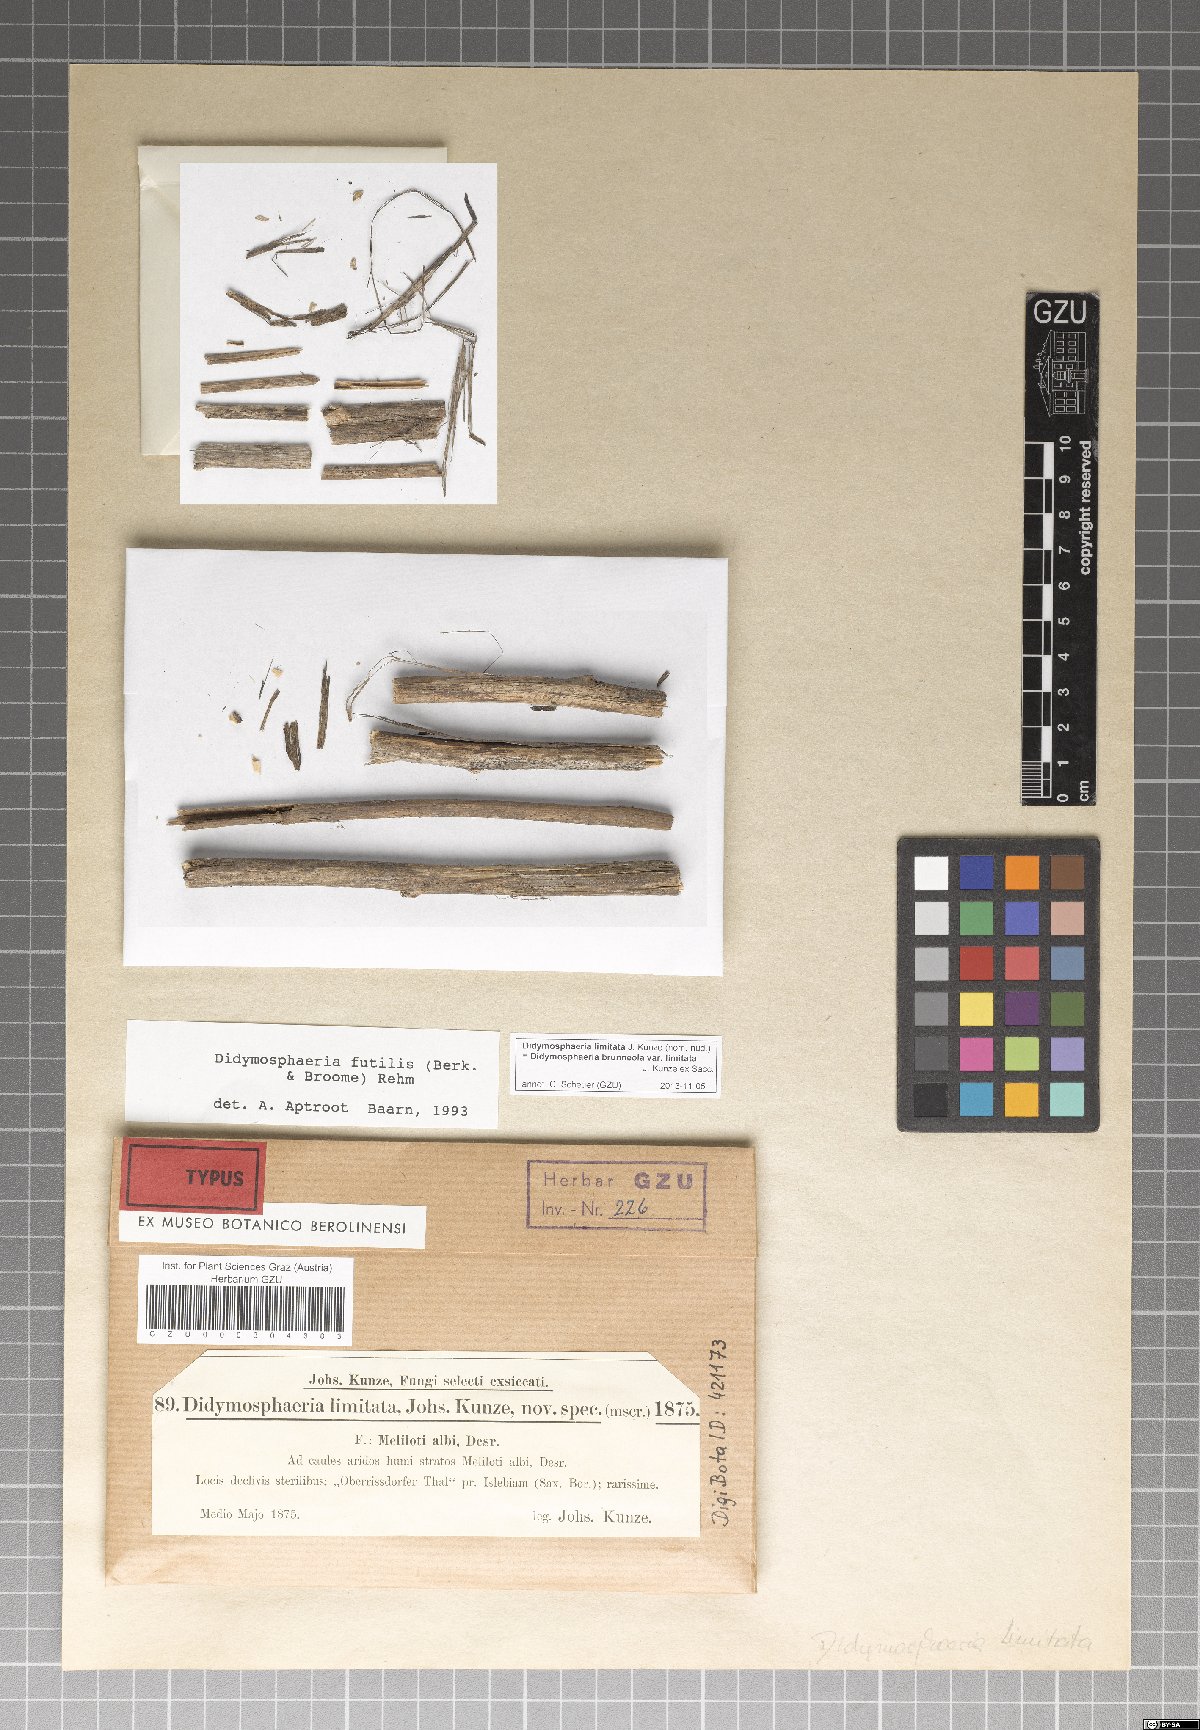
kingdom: Fungi
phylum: Ascomycota
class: Dothideomycetes
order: Pleosporales
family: Didymosphaeriaceae
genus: Didymosphaeria
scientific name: Didymosphaeria futilis
